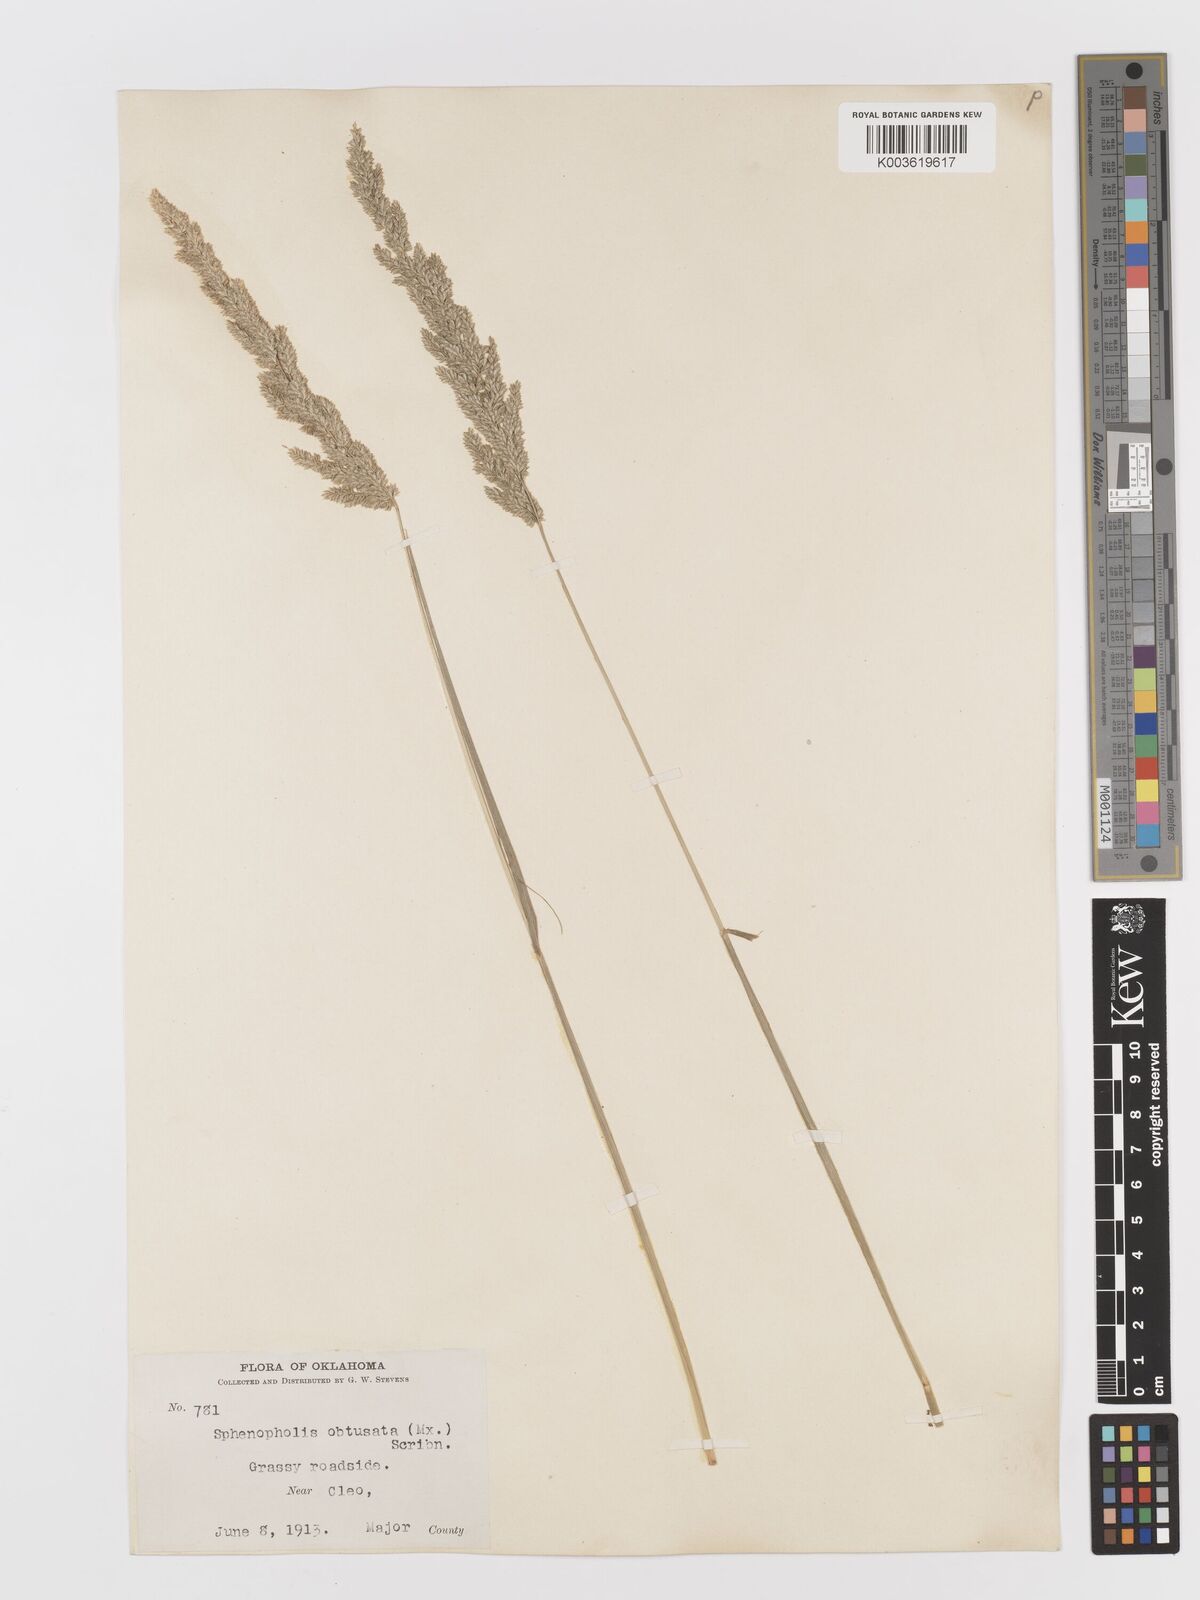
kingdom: Plantae
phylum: Tracheophyta
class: Liliopsida
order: Poales
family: Poaceae
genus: Sphenopholis
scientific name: Sphenopholis obtusata
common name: Prairie grass
